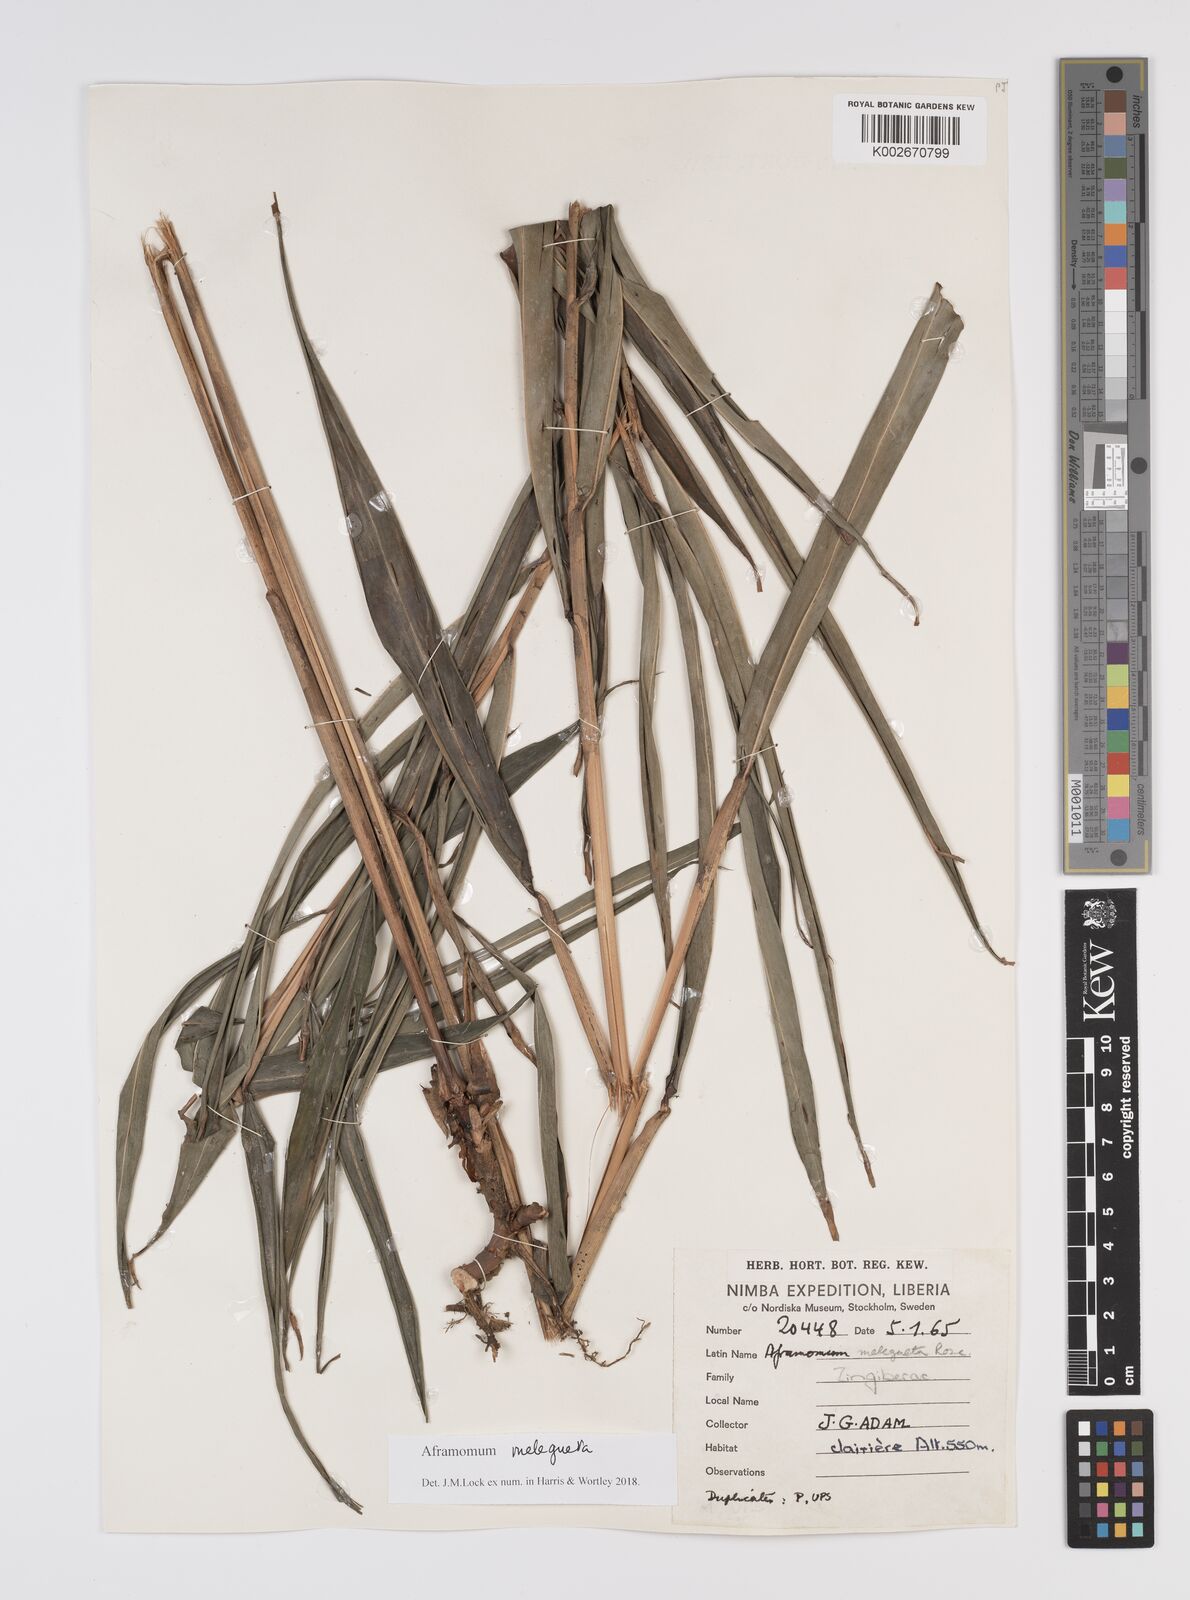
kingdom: Plantae
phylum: Tracheophyta
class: Liliopsida
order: Zingiberales
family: Zingiberaceae
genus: Aframomum
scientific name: Aframomum melegueta
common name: Grains of paradise
